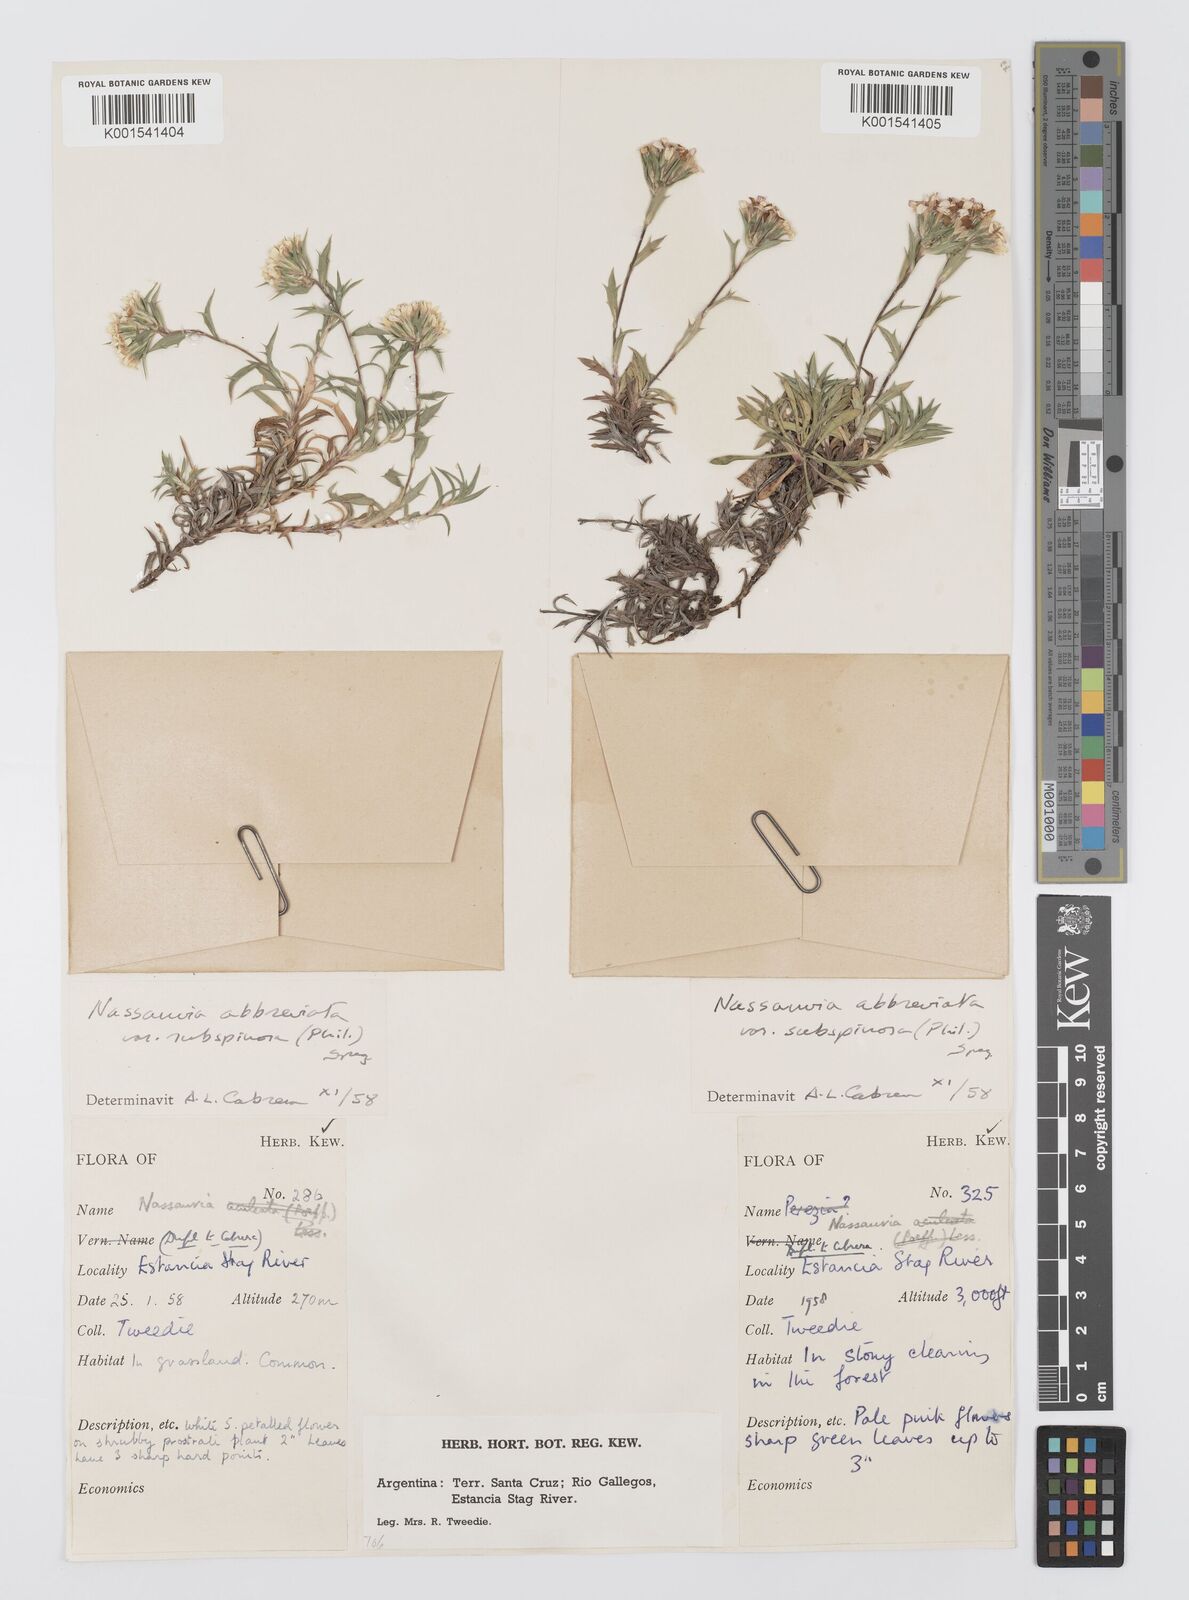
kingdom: Plantae
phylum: Tracheophyta
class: Magnoliopsida
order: Asterales
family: Asteraceae
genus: Nassauvia
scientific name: Nassauvia aculeata
